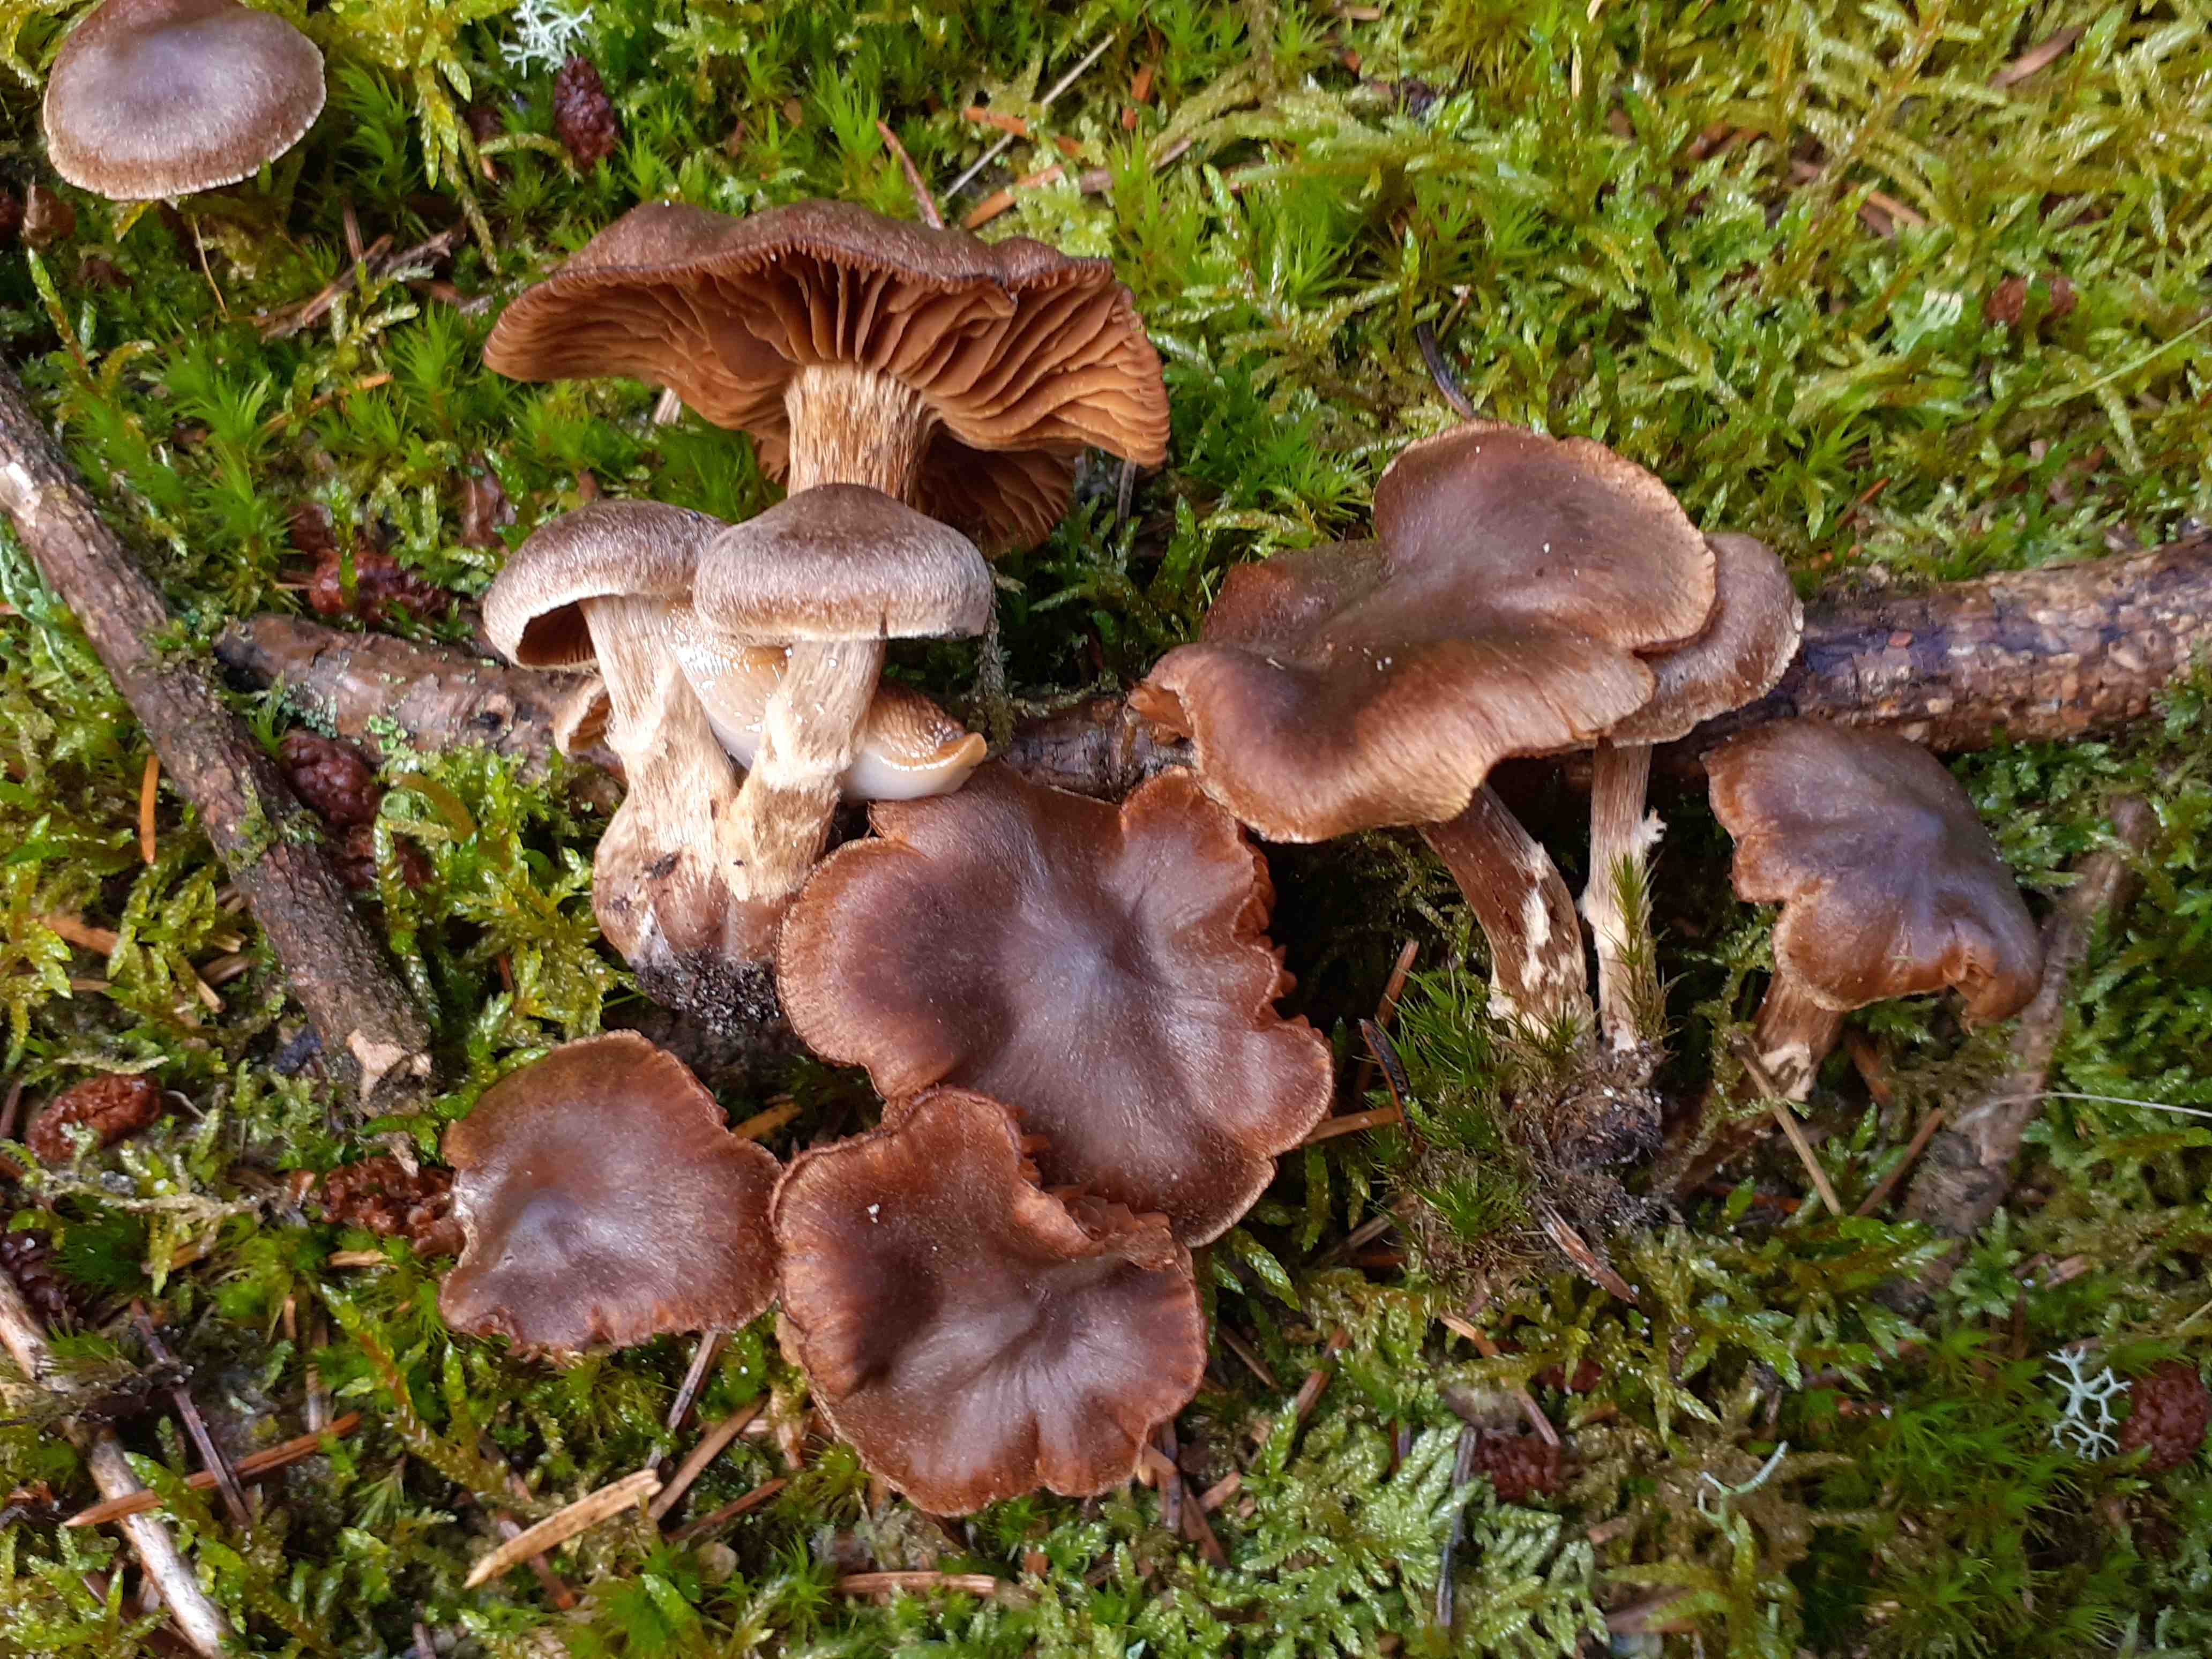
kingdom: Fungi
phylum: Basidiomycota
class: Agaricomycetes
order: Agaricales
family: Cortinariaceae
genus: Cortinarius
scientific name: Cortinarius fusisporus
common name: brunfnugget slørhat
